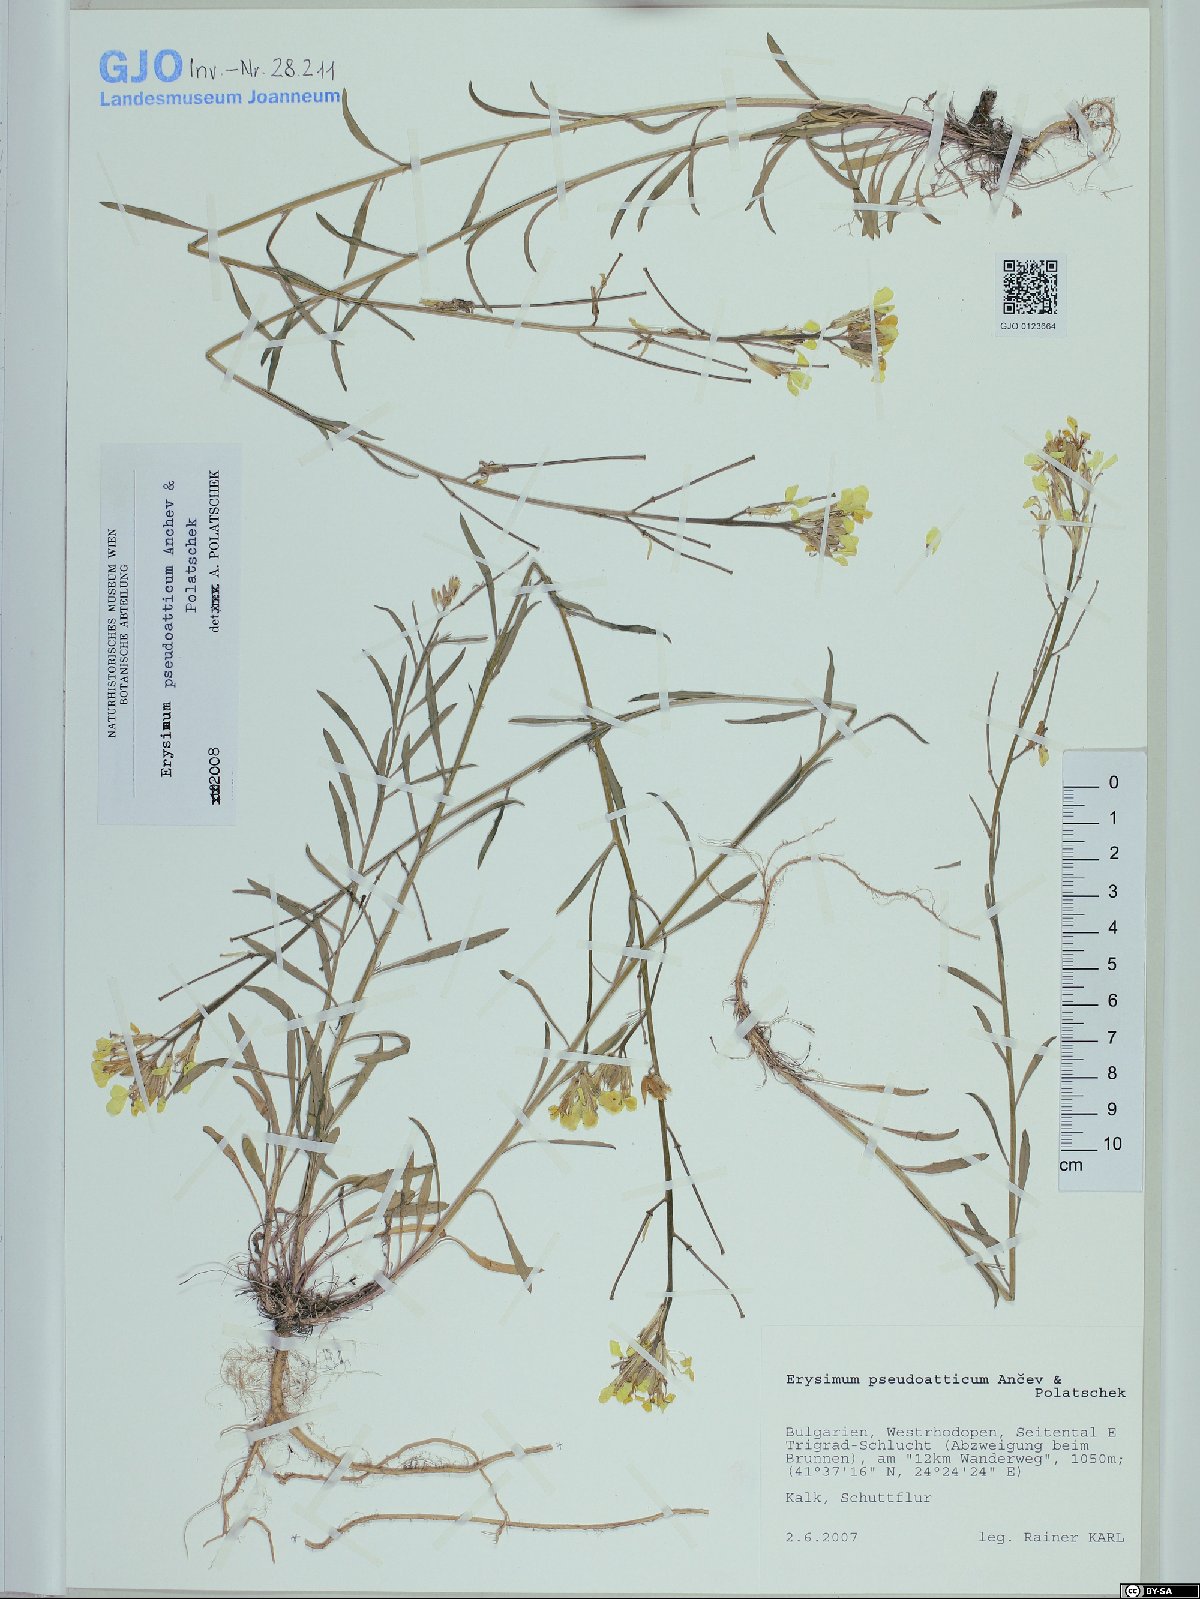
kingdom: Plantae
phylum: Tracheophyta
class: Magnoliopsida
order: Brassicales
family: Brassicaceae
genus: Erysimum
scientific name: Erysimum pseudoatticum
